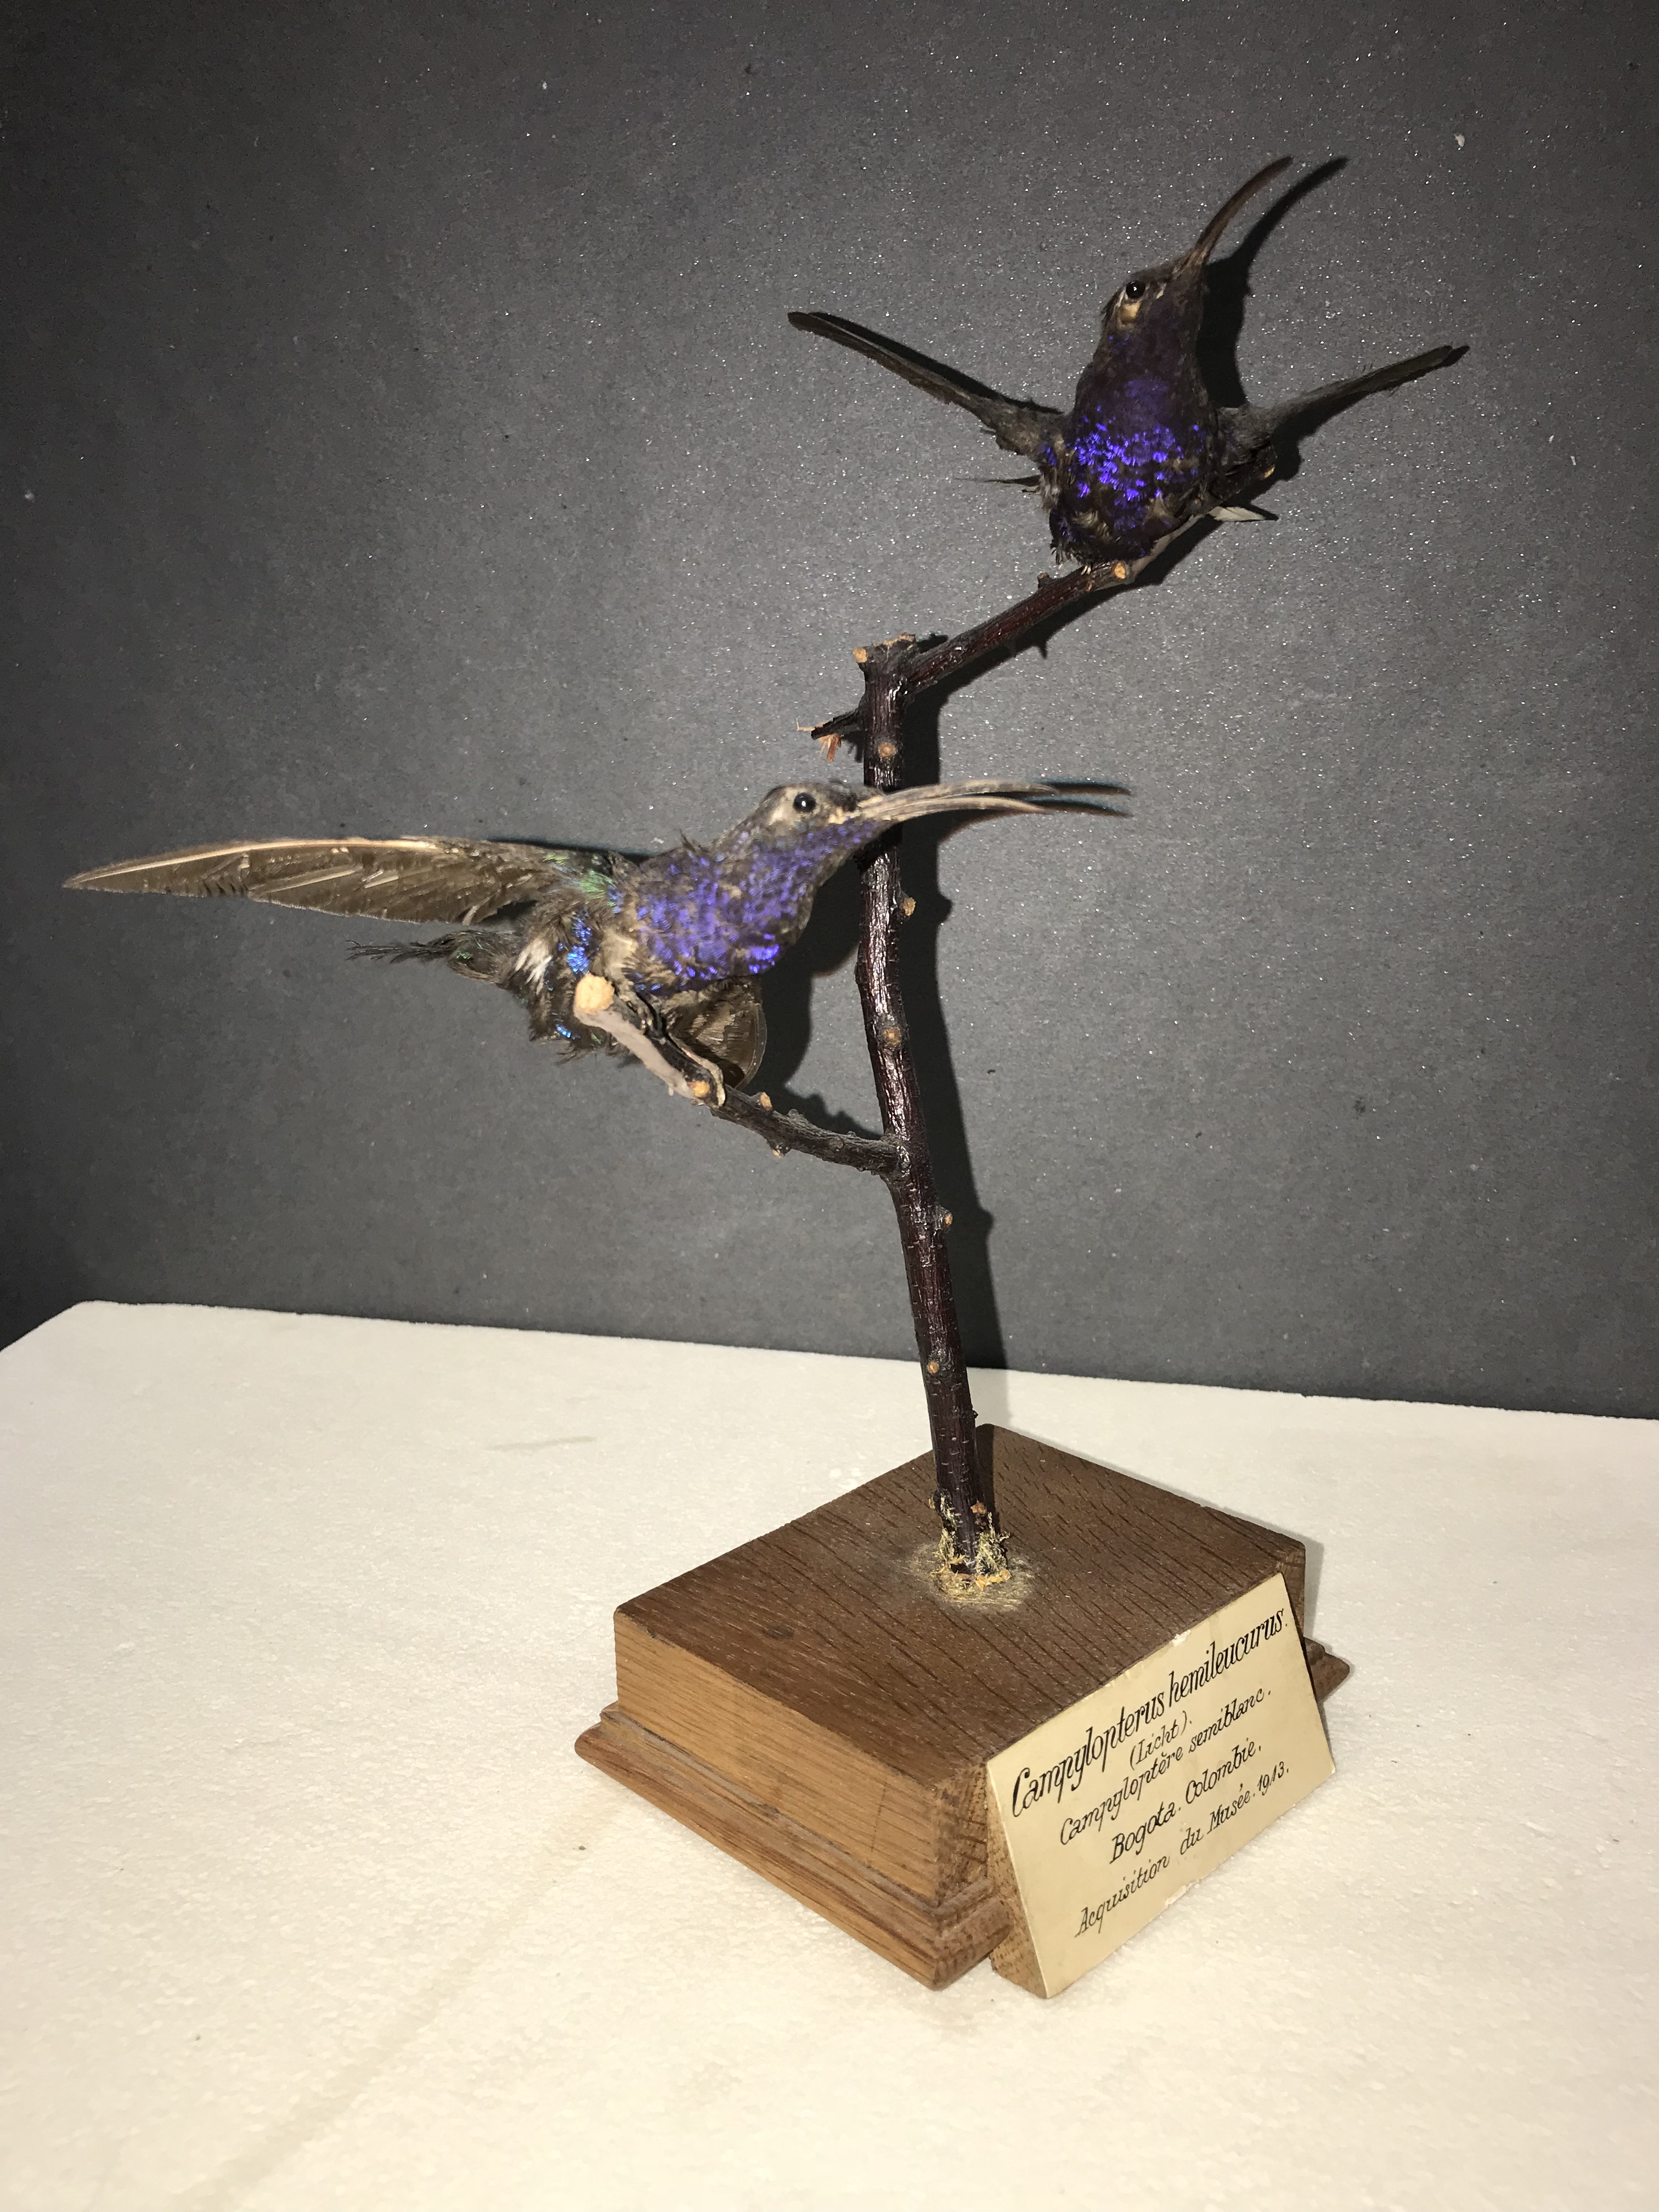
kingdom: Animalia
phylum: Chordata
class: Aves
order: Apodiformes
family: Trochilidae
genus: Campylopterus
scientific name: Campylopterus hemileucurus
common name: Violet sabrewing
